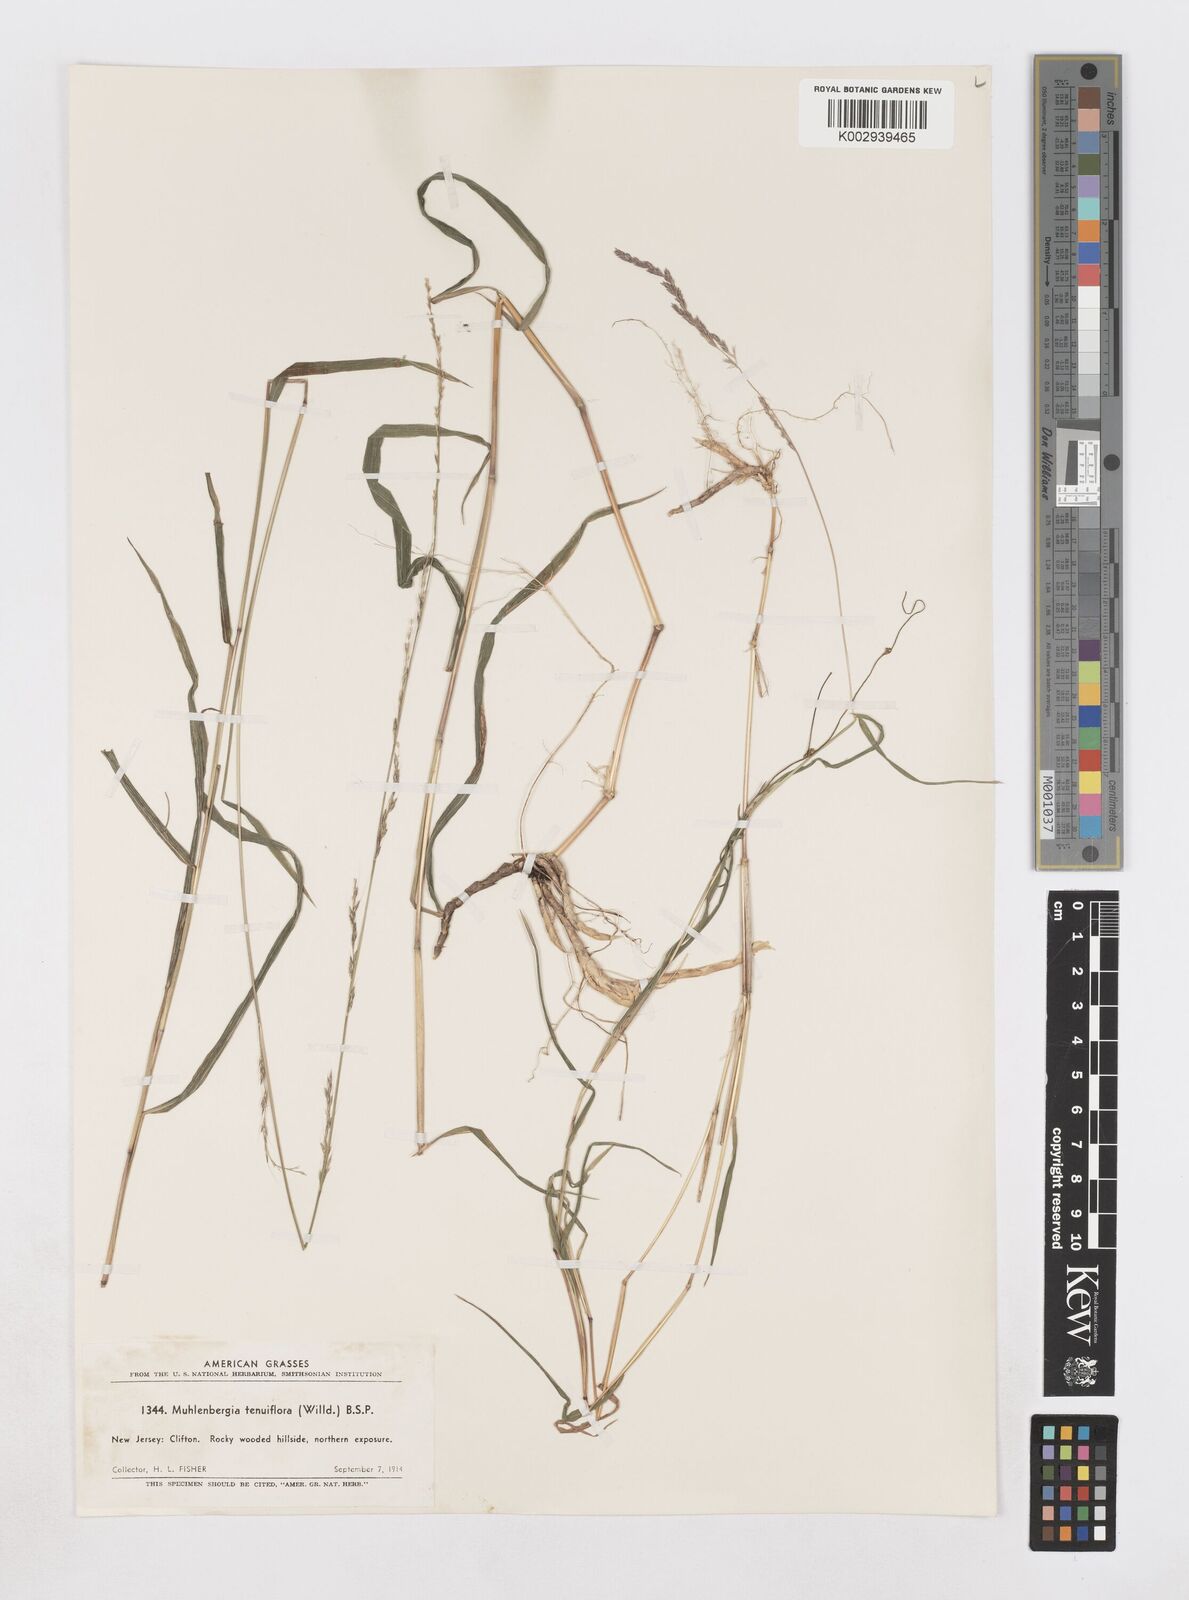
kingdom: Plantae
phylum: Tracheophyta
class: Liliopsida
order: Poales
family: Poaceae
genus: Muhlenbergia
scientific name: Muhlenbergia tenuiflora
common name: Slender muhly
